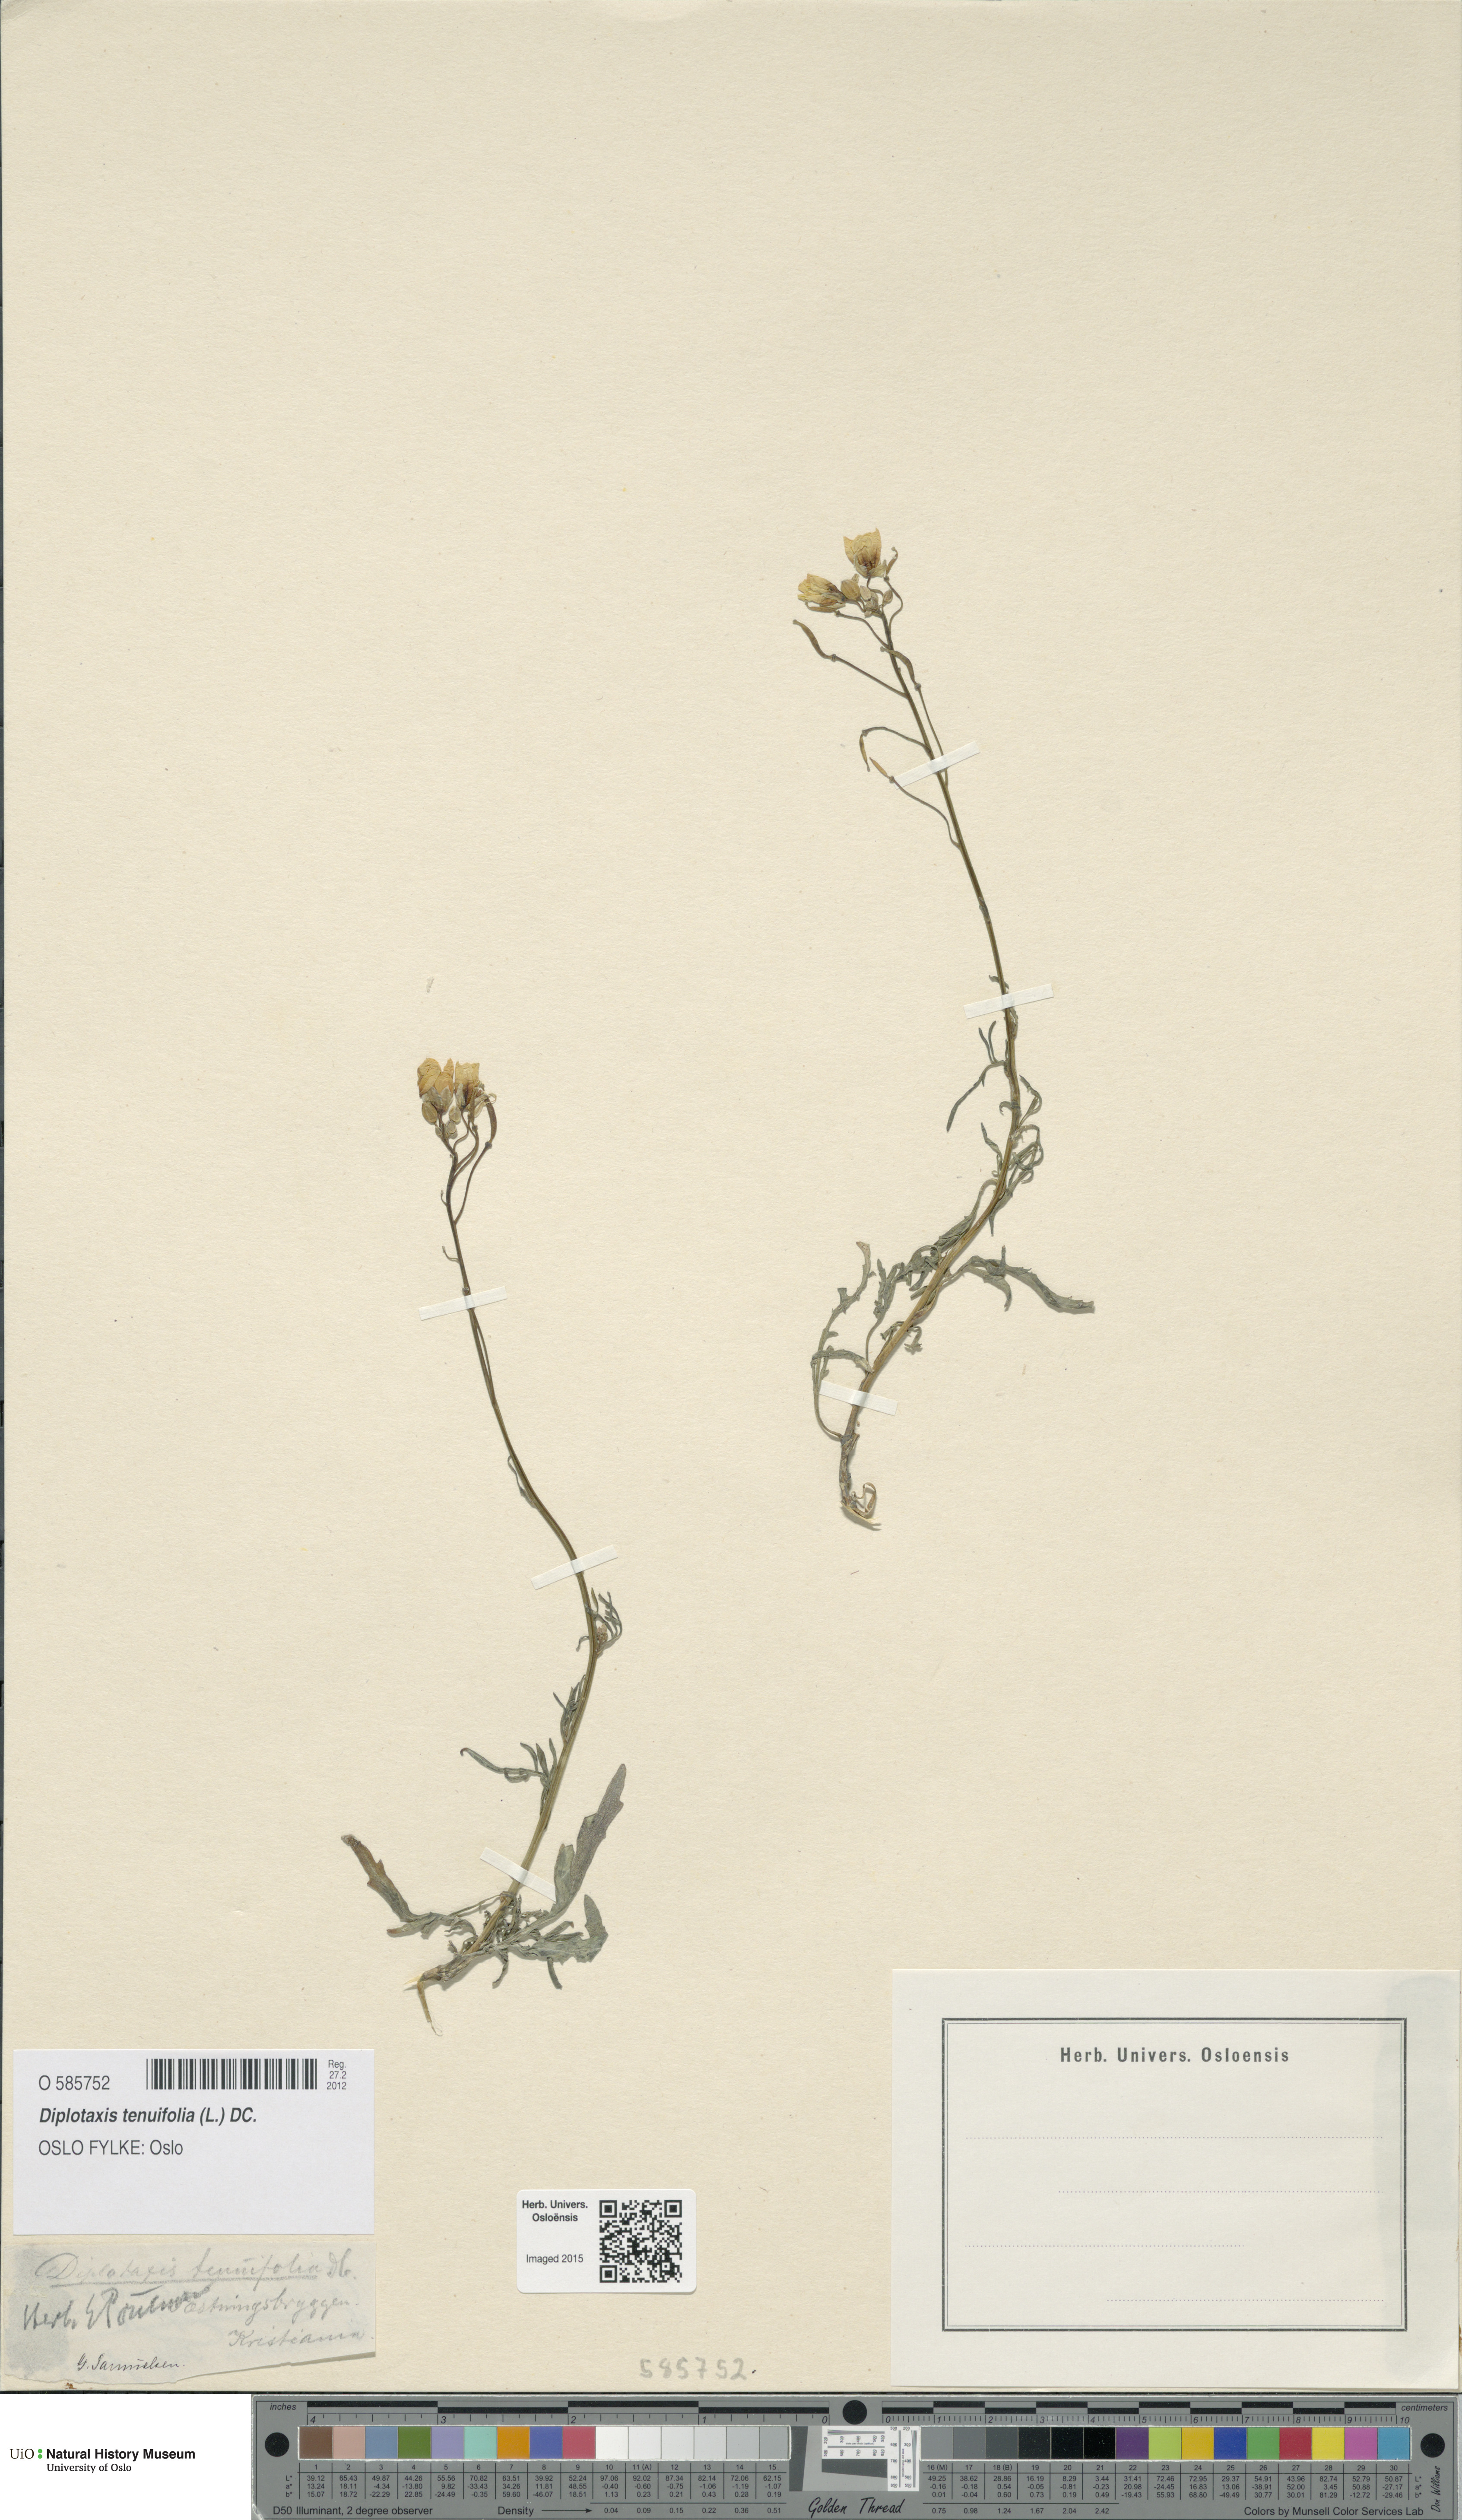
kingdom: Plantae
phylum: Tracheophyta
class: Magnoliopsida
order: Brassicales
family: Brassicaceae
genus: Diplotaxis
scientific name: Diplotaxis tenuifolia
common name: Perennial wall-rocket
